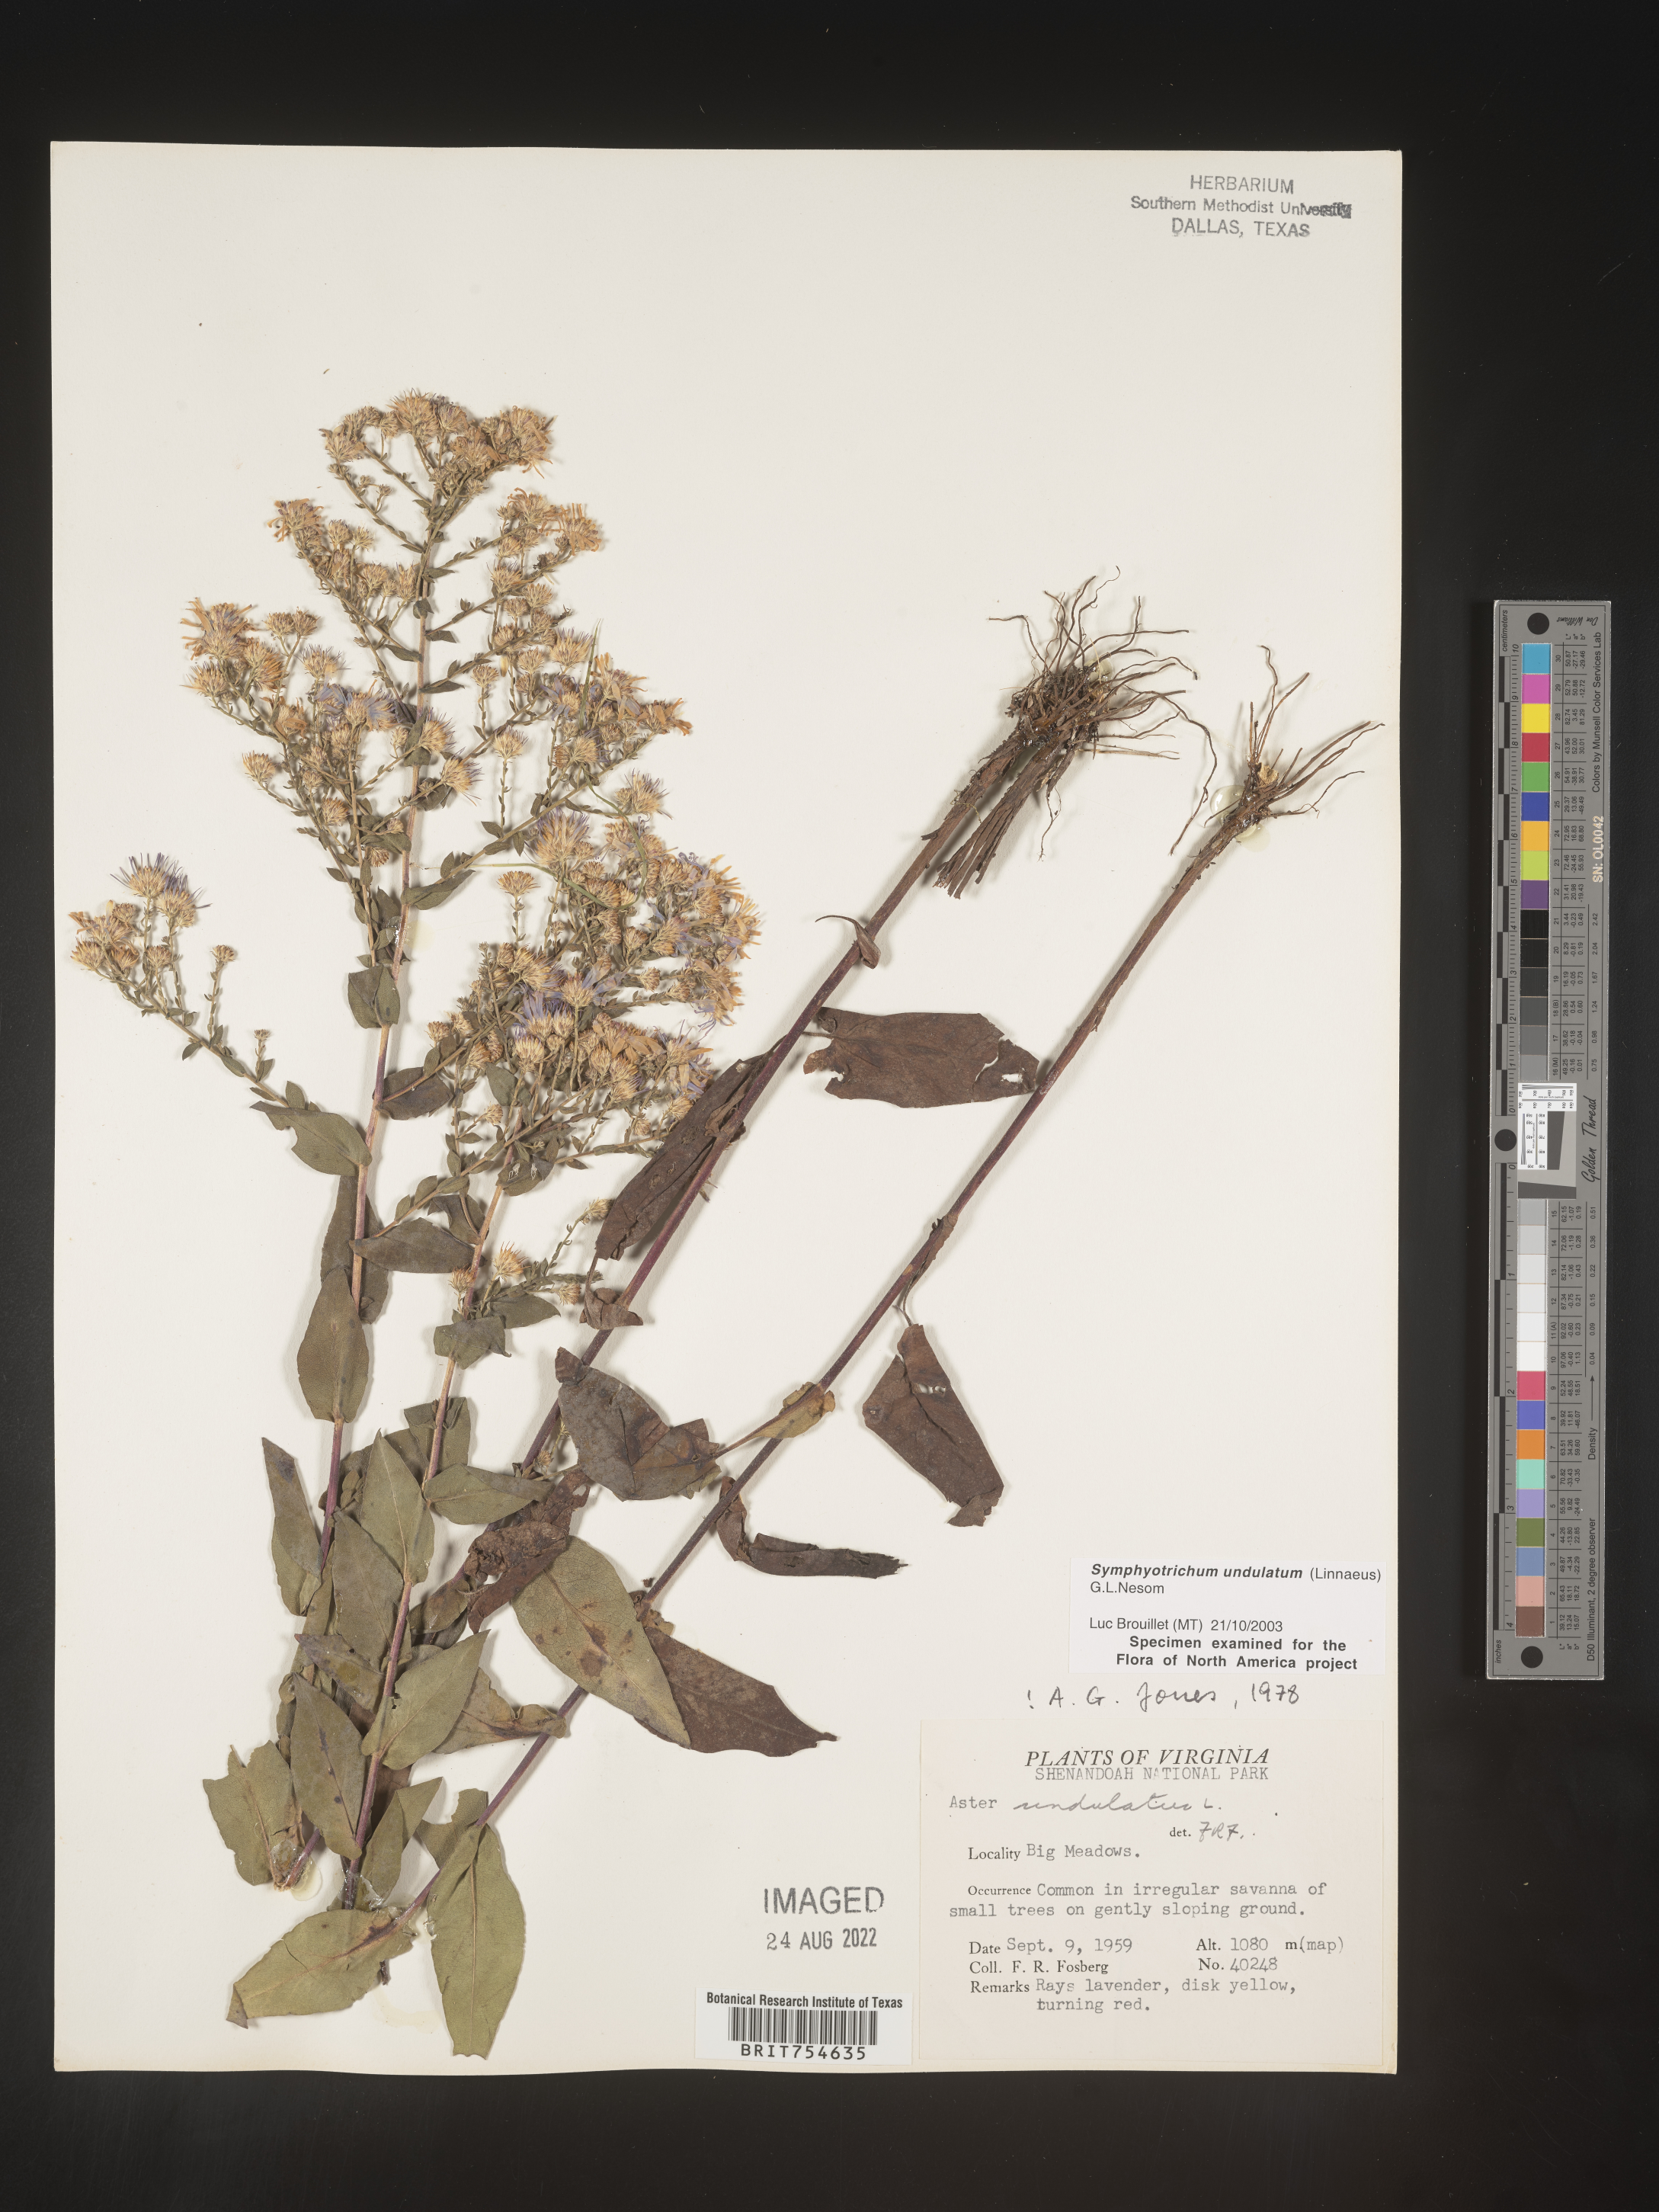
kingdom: Plantae
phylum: Tracheophyta
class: Magnoliopsida
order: Asterales
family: Asteraceae
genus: Symphyotrichum
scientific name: Symphyotrichum undulatum
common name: Clasping heart-leaf aster
